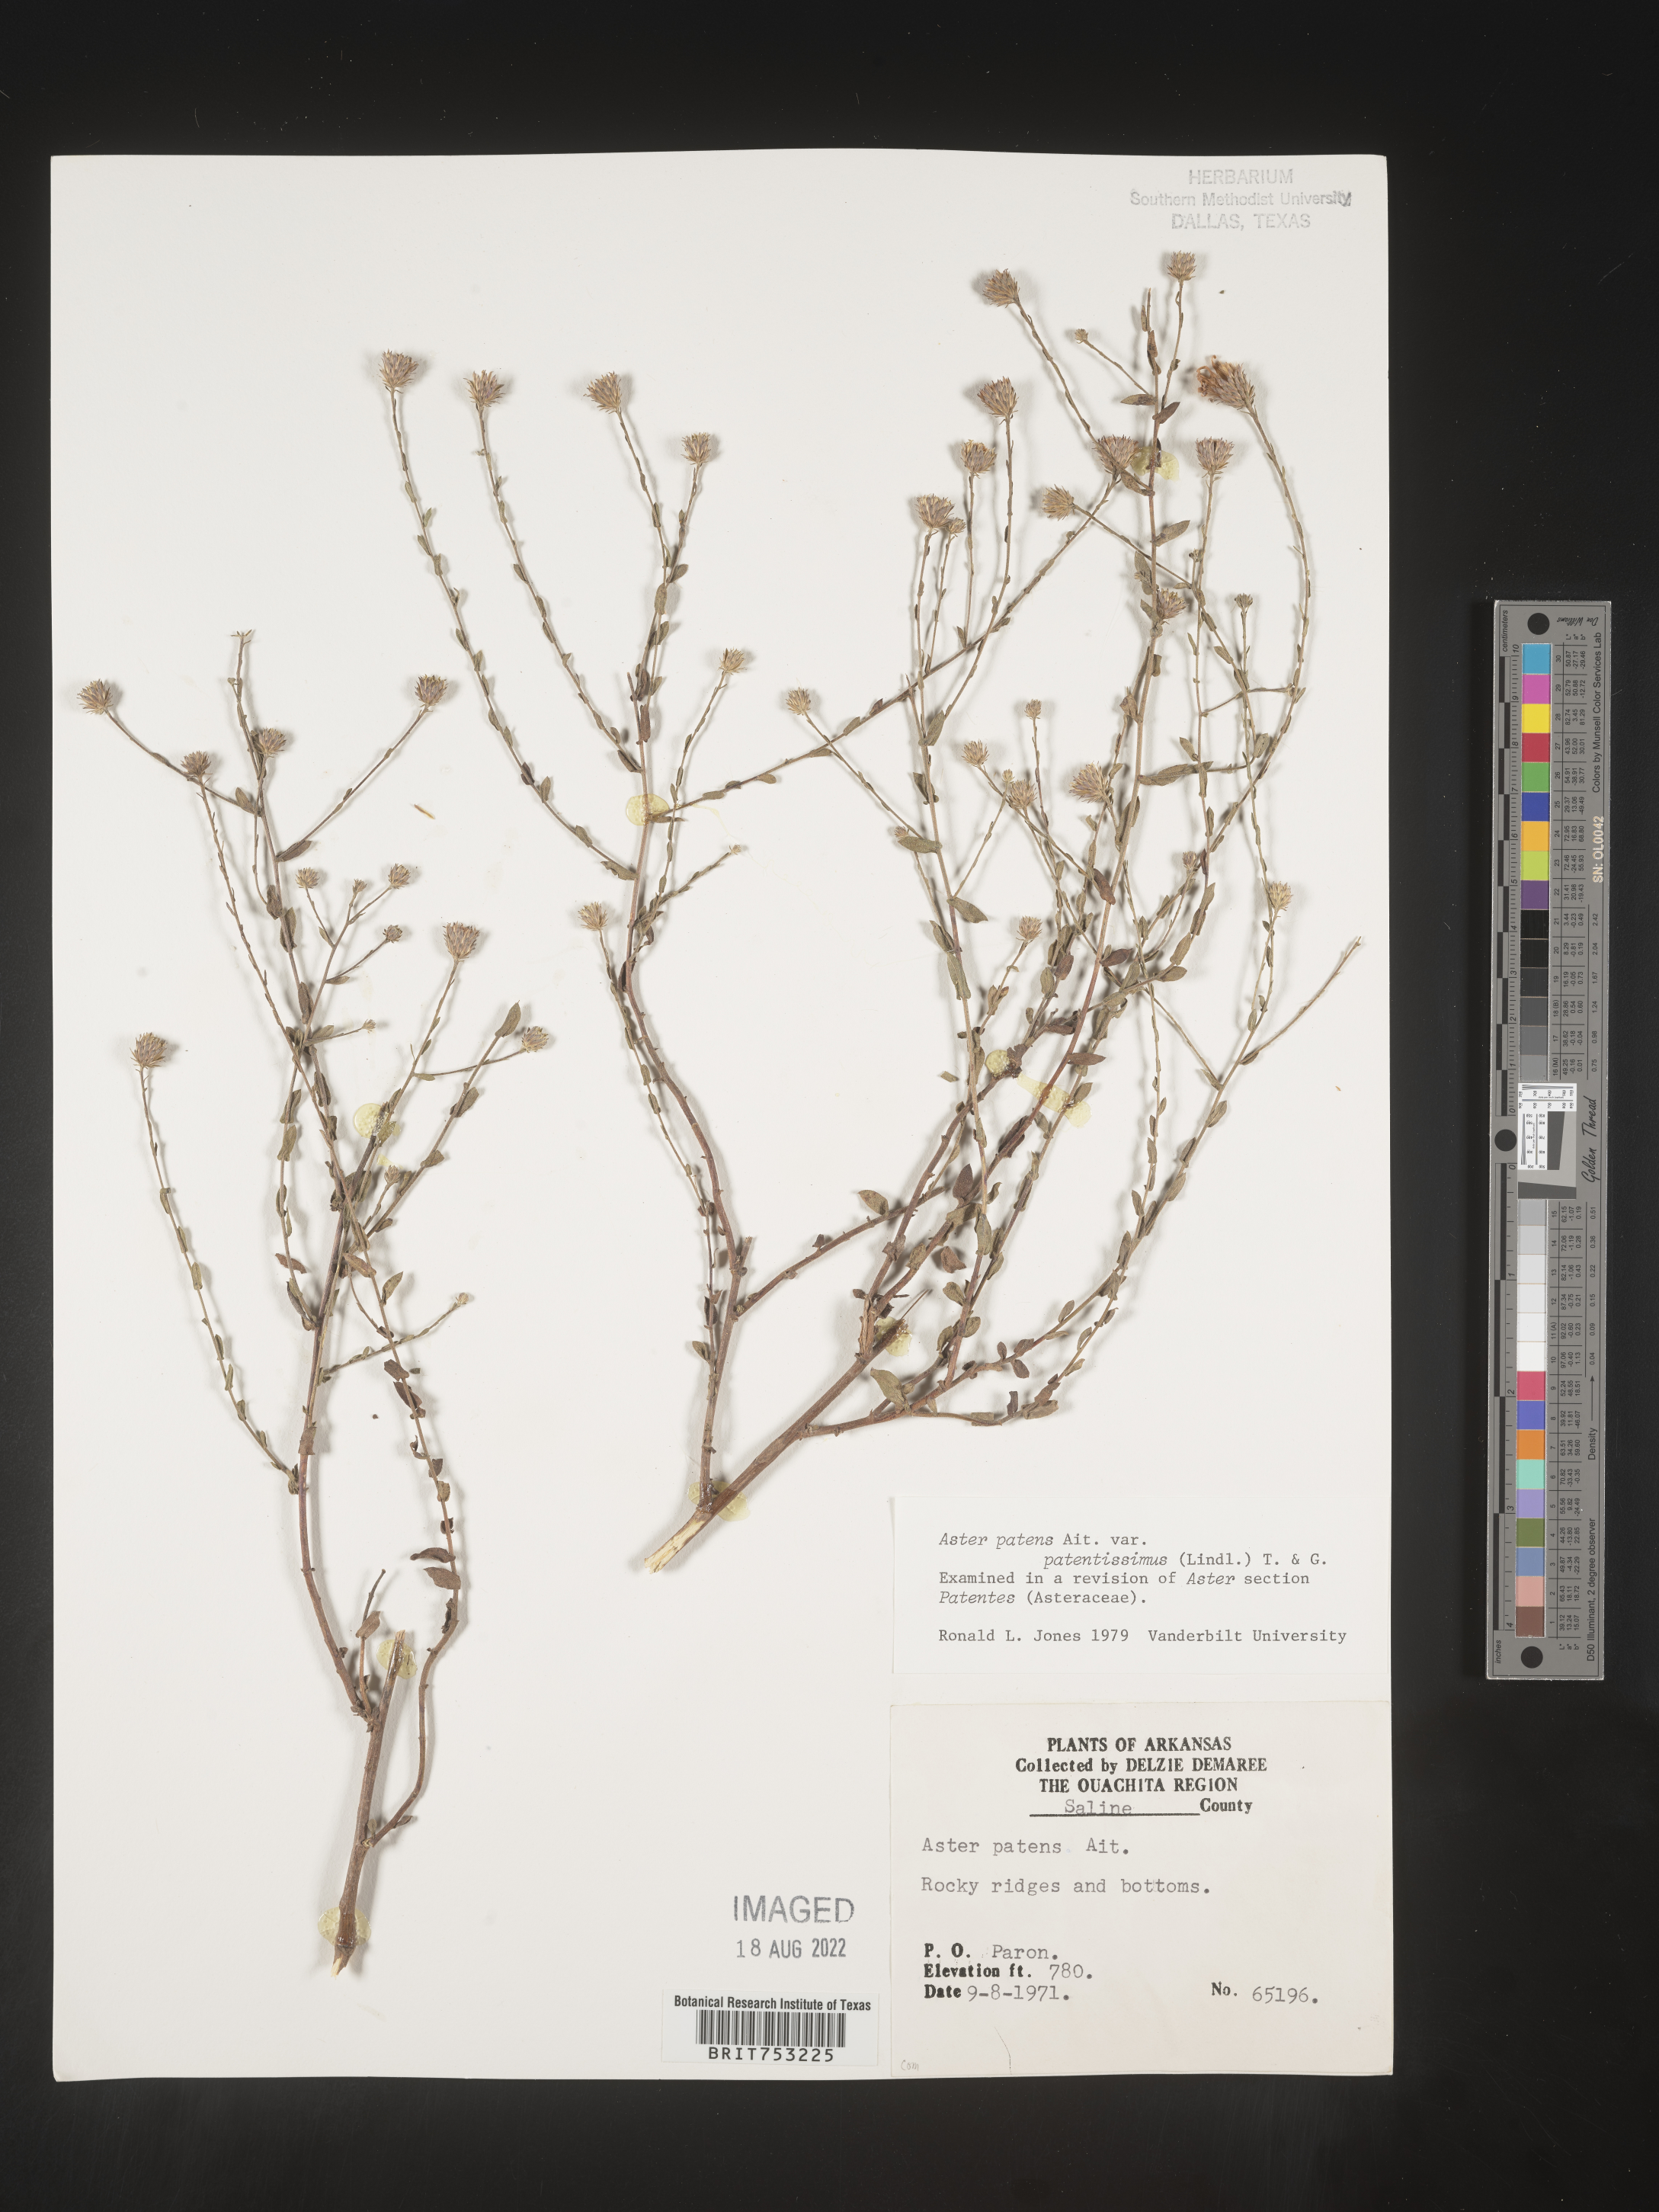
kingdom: Plantae
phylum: Tracheophyta
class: Magnoliopsida
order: Asterales
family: Asteraceae
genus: Symphyotrichum
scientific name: Symphyotrichum patens
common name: Late purple aster
